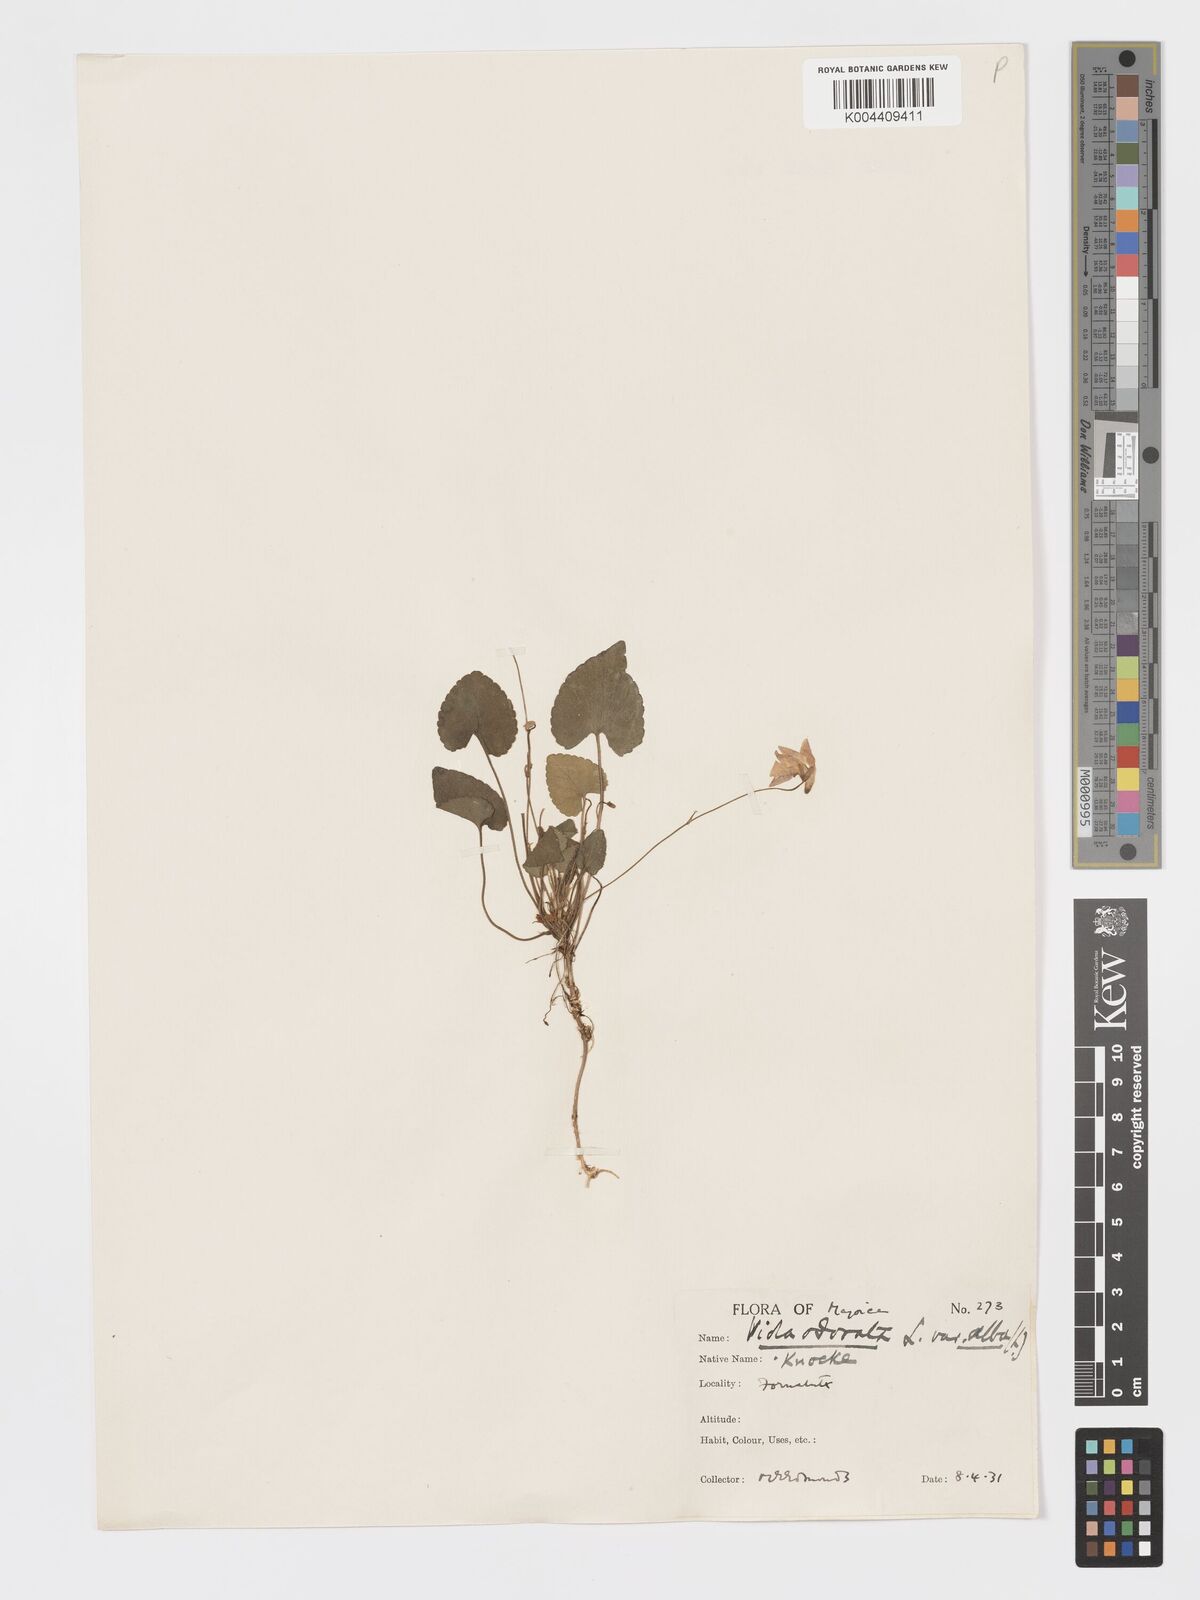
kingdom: Plantae
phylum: Tracheophyta
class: Magnoliopsida
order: Malpighiales
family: Violaceae
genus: Viola
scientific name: Viola alba
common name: White violet
